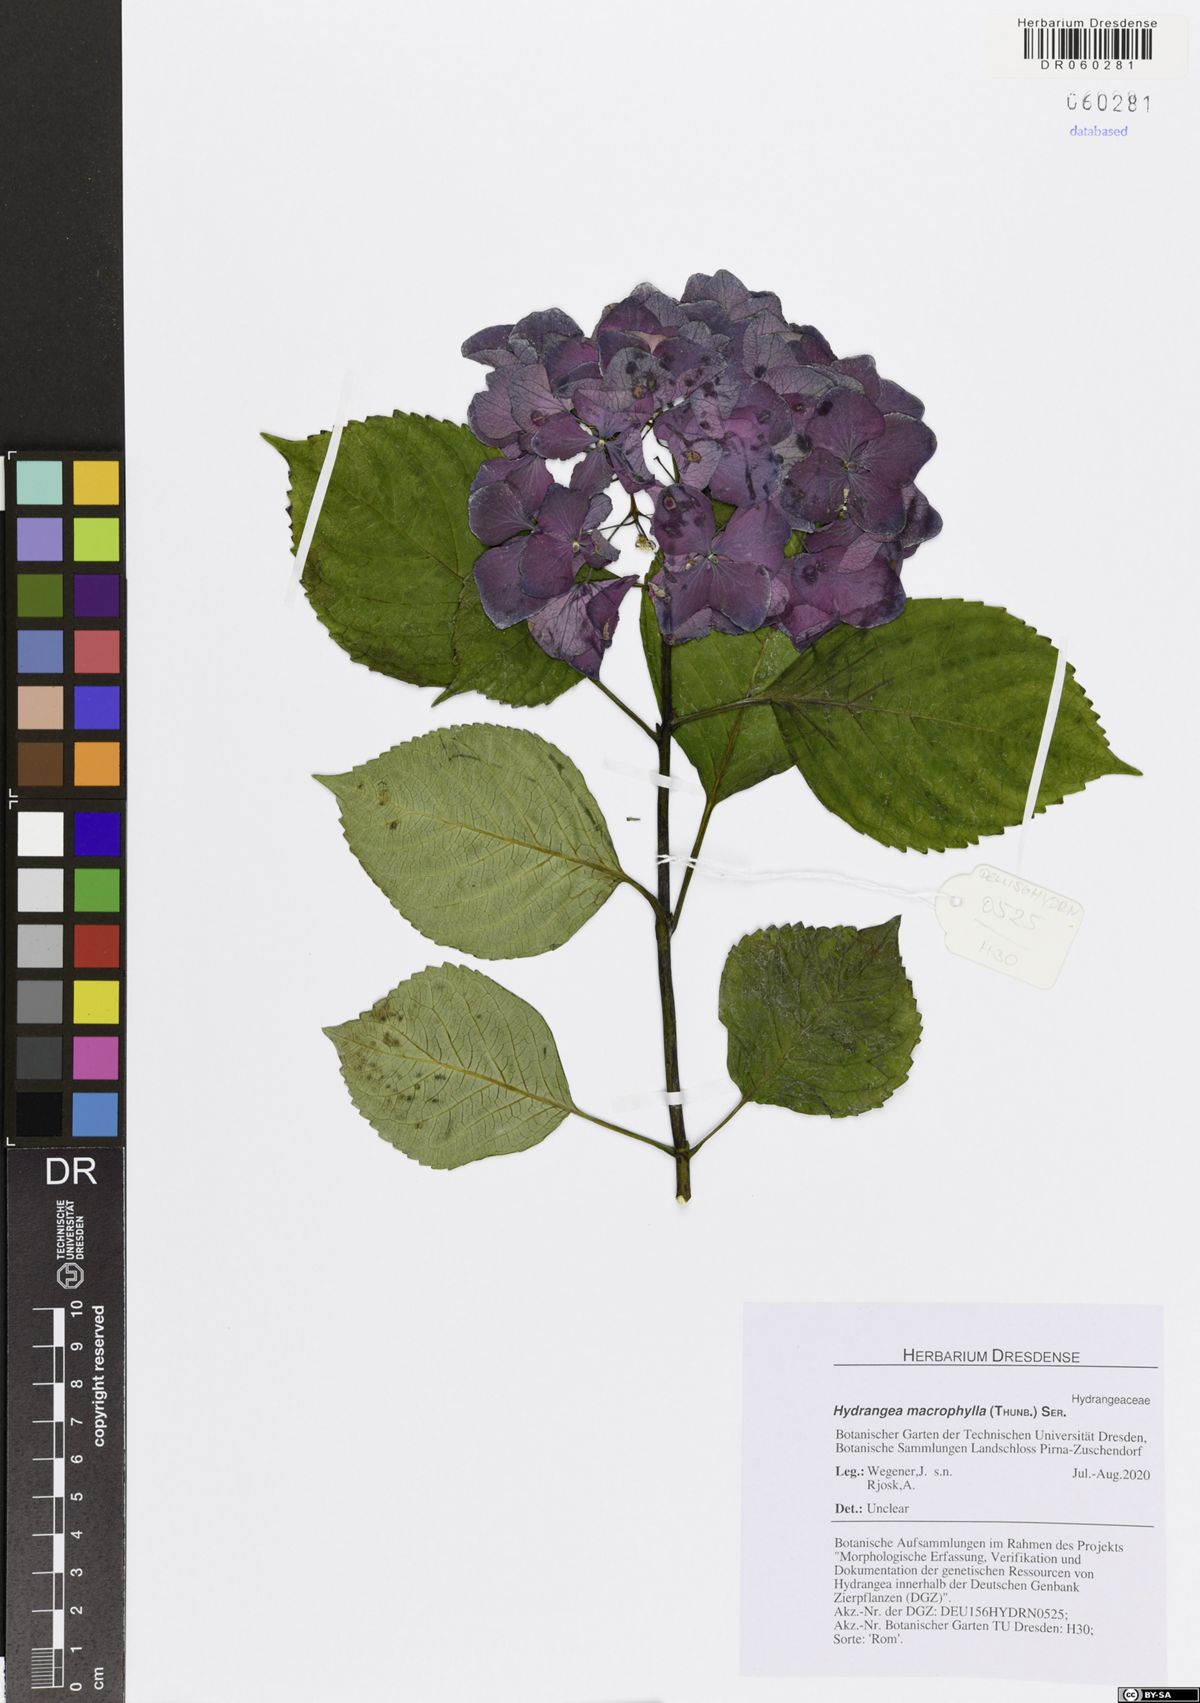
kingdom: Plantae
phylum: Tracheophyta
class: Magnoliopsida
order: Cornales
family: Hydrangeaceae
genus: Hydrangea
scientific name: Hydrangea macrophylla
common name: Hydrangea
